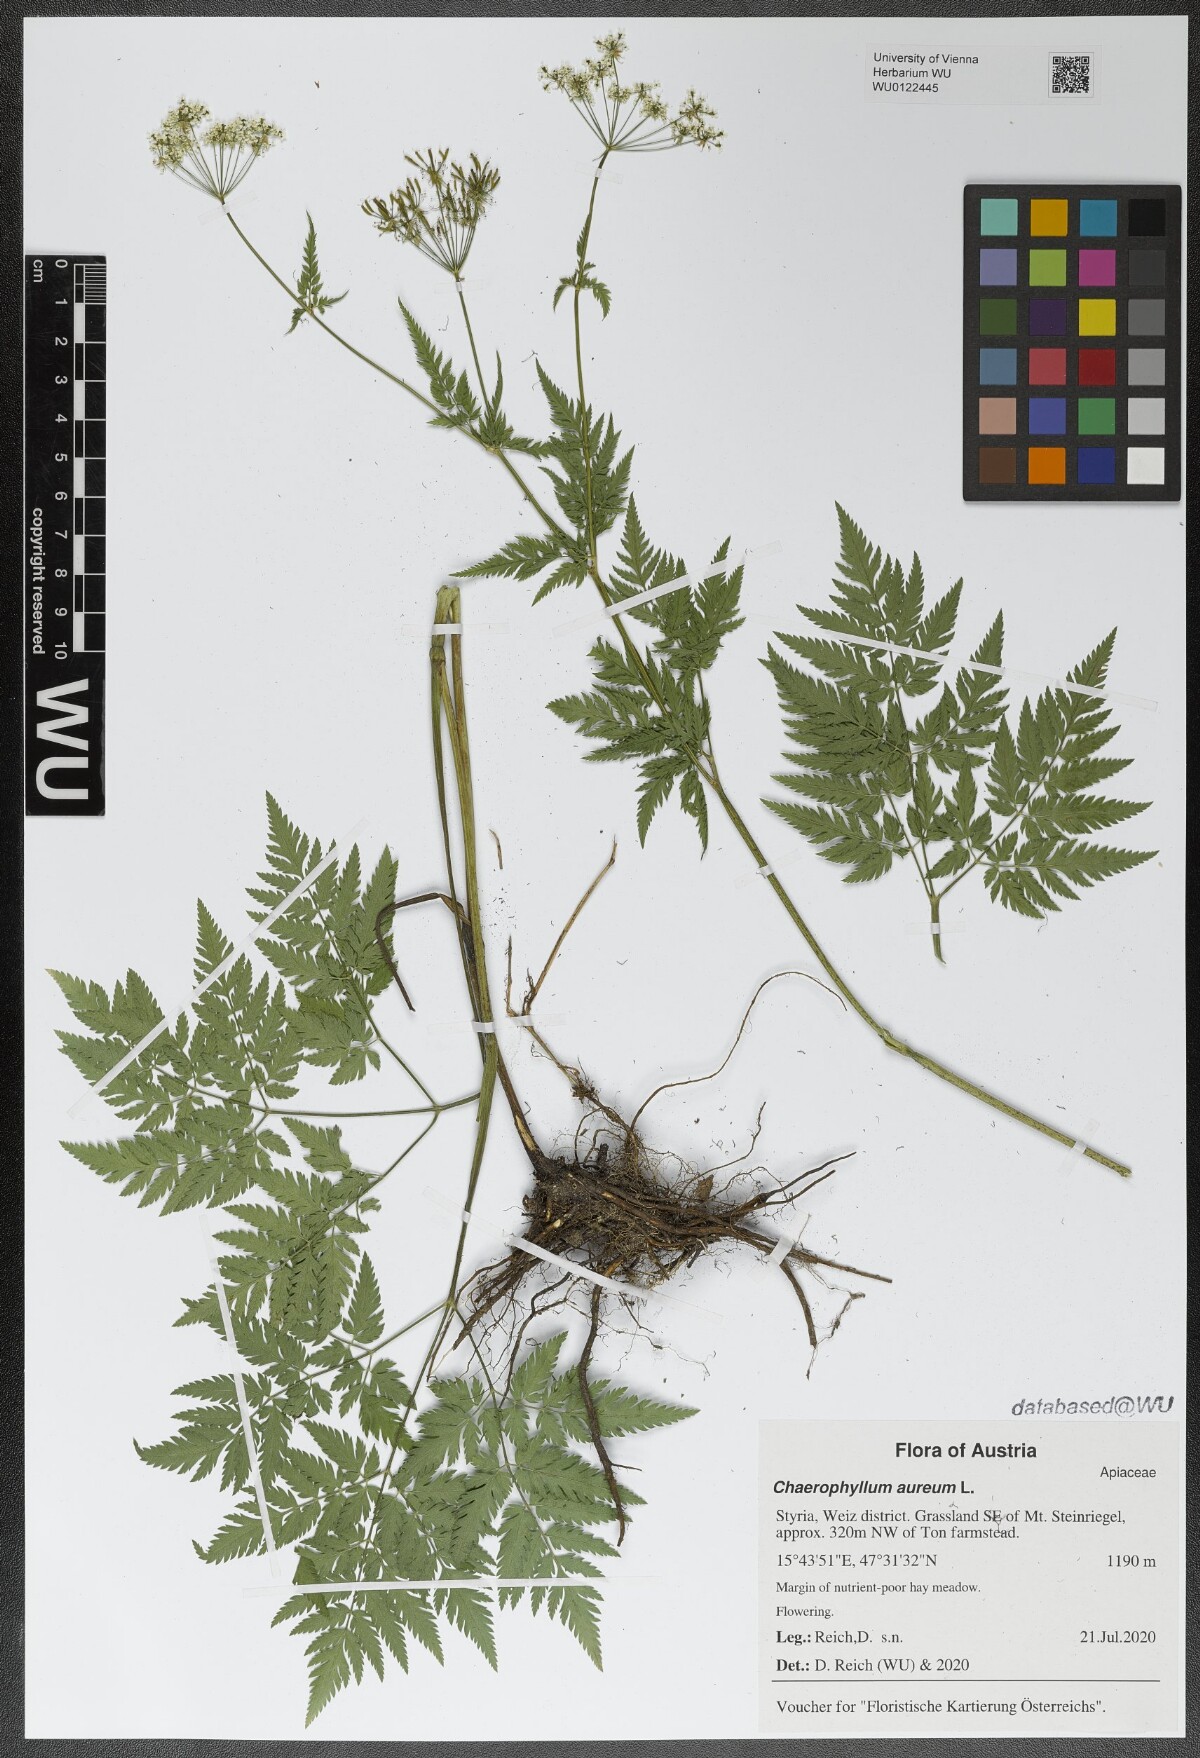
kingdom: Plantae
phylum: Tracheophyta
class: Magnoliopsida
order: Apiales
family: Apiaceae
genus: Chaerophyllum
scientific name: Chaerophyllum aureum
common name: Golden chervil
